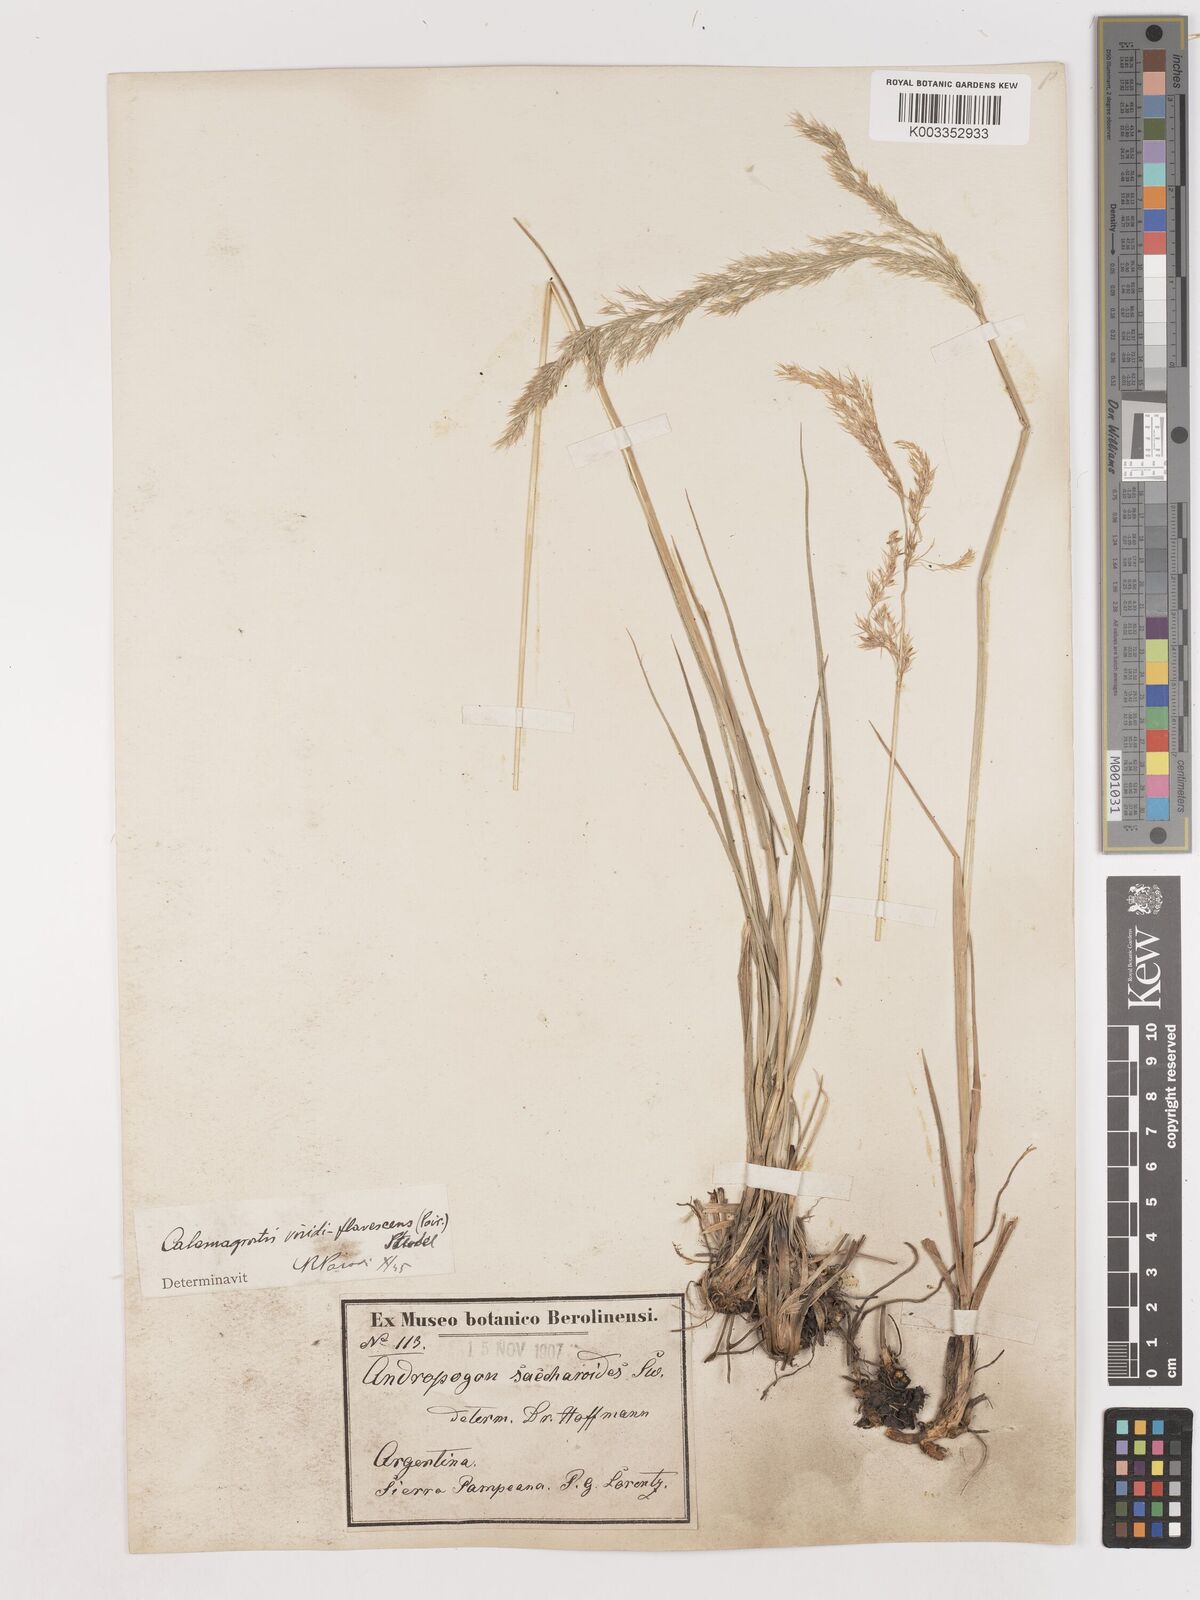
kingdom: Plantae
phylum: Tracheophyta
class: Liliopsida
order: Poales
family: Poaceae
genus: Cinnagrostis
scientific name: Cinnagrostis viridiflavescens
